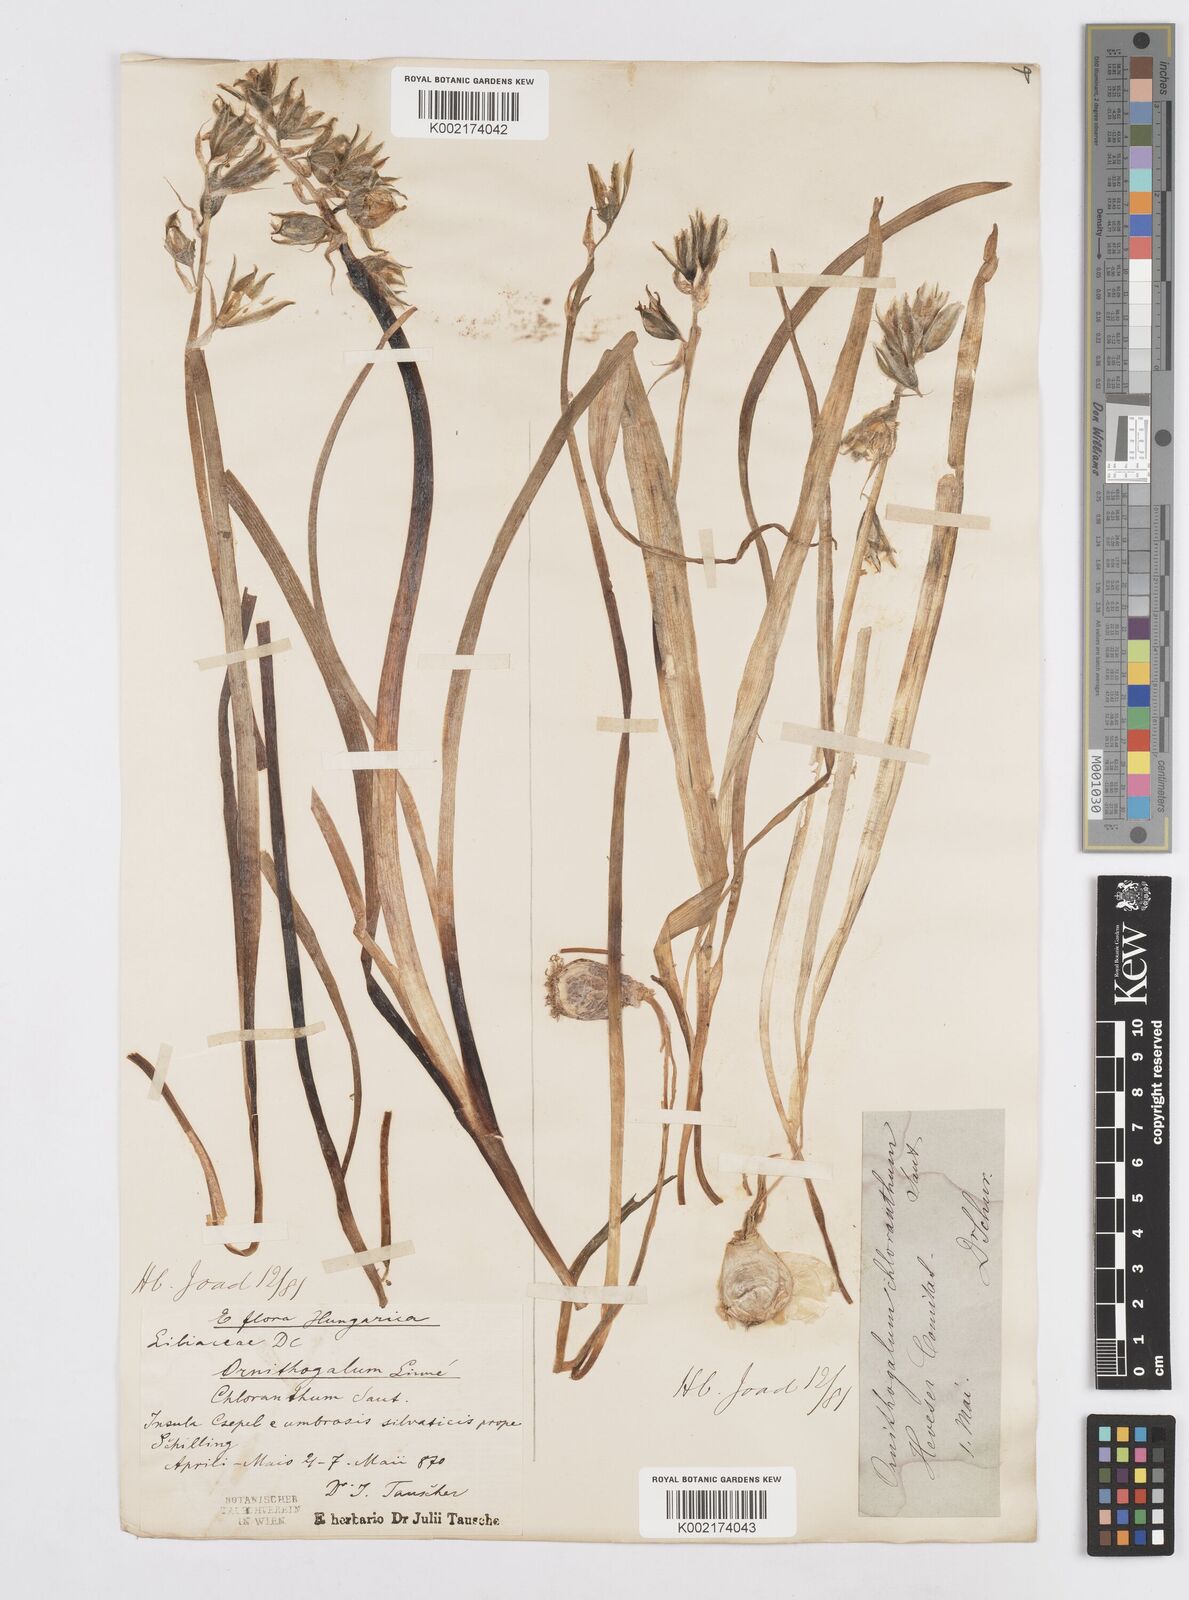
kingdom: Plantae
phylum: Tracheophyta
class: Liliopsida
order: Asparagales
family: Asparagaceae
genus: Ornithogalum
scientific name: Ornithogalum boucheanum
